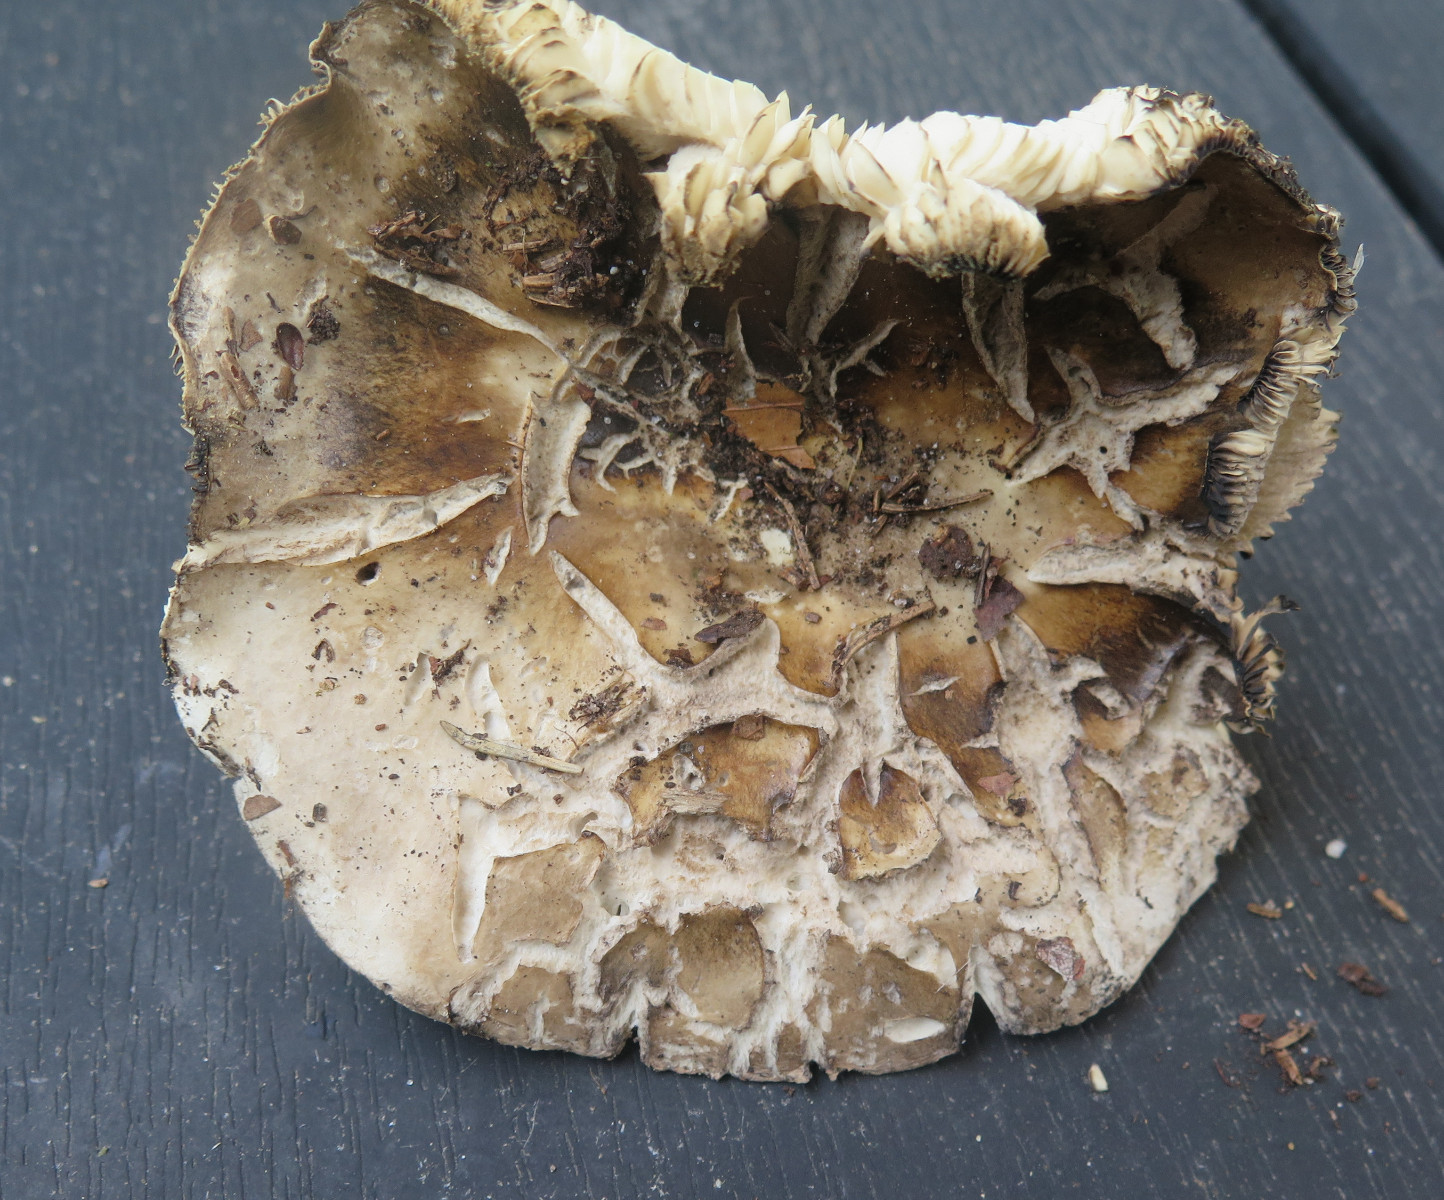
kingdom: Fungi
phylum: Basidiomycota
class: Agaricomycetes
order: Russulales
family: Russulaceae
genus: Russula
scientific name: Russula adusta
